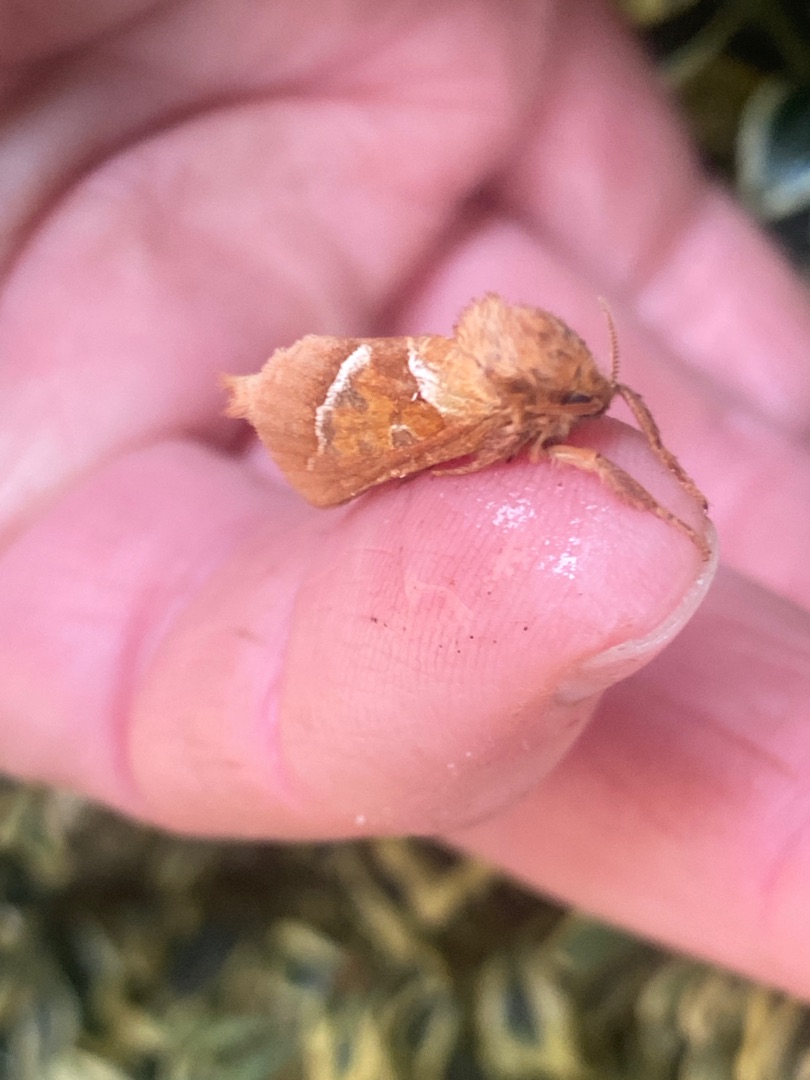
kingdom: Animalia
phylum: Arthropoda
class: Insecta
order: Lepidoptera
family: Hepialidae
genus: Triodia
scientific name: Triodia sylvina
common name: Skræpperodæder
